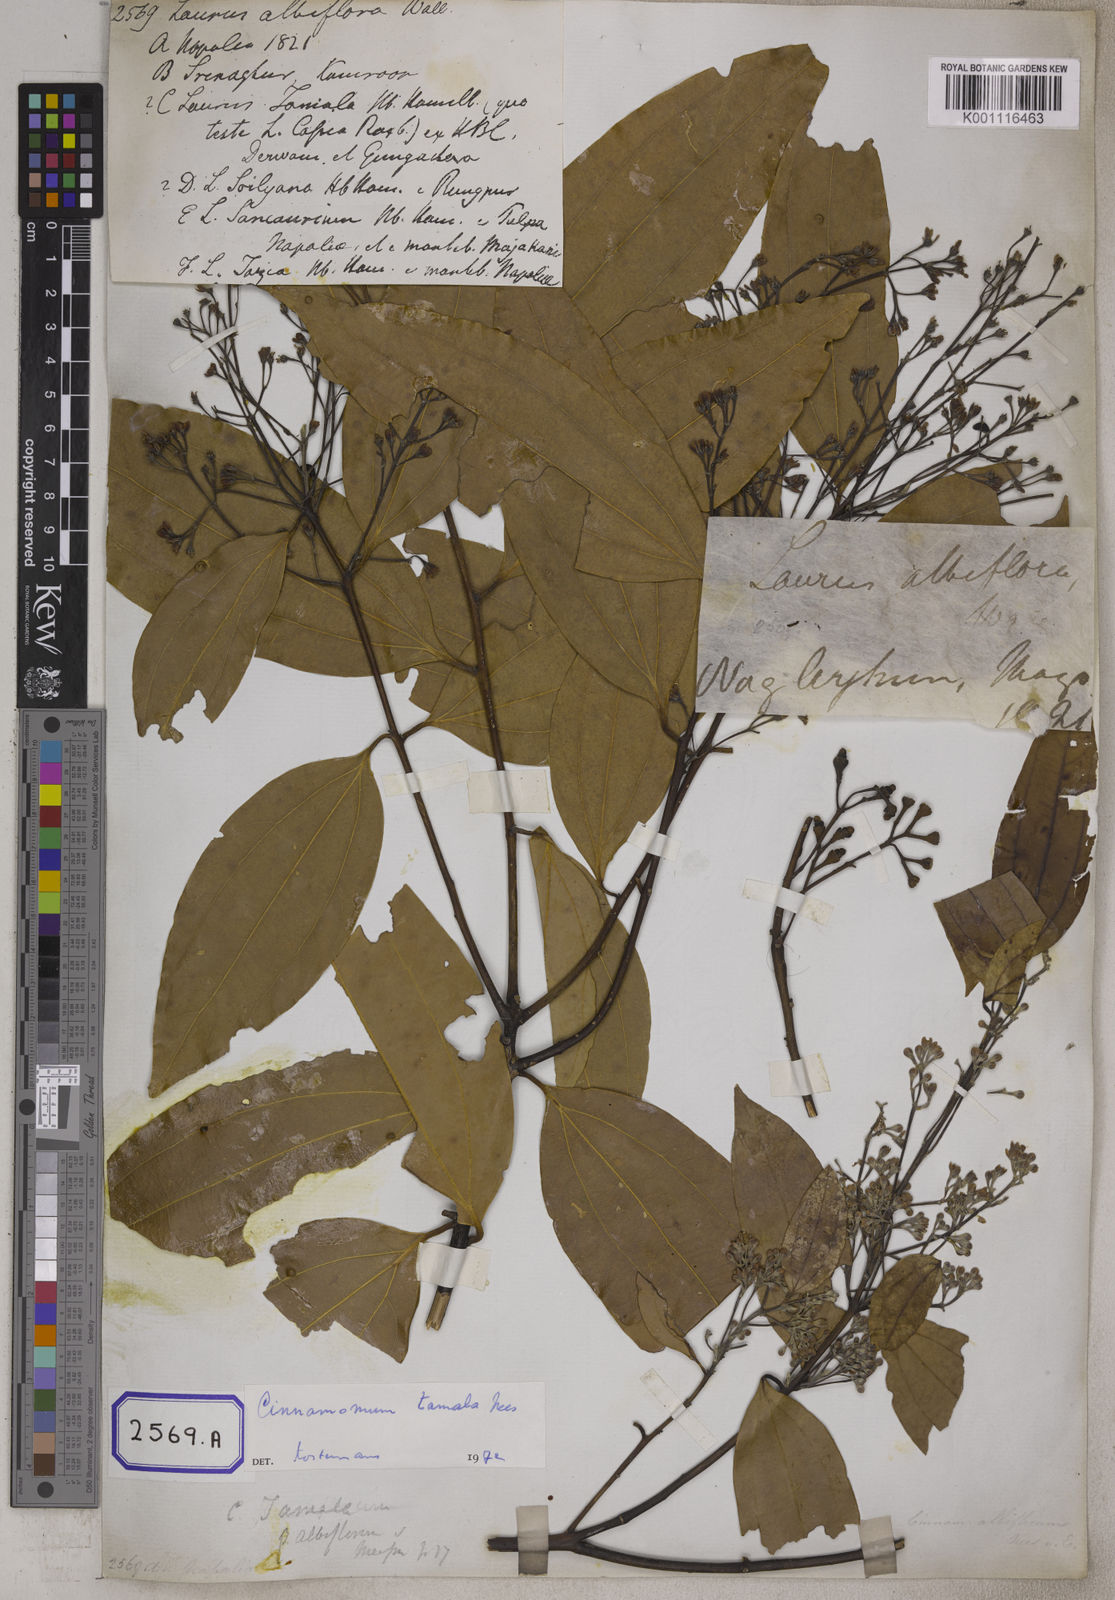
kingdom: Plantae
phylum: Tracheophyta
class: Magnoliopsida
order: Laurales
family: Lauraceae
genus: Cinnamomum
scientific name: Cinnamomum tamala
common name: Indian bay leaves
